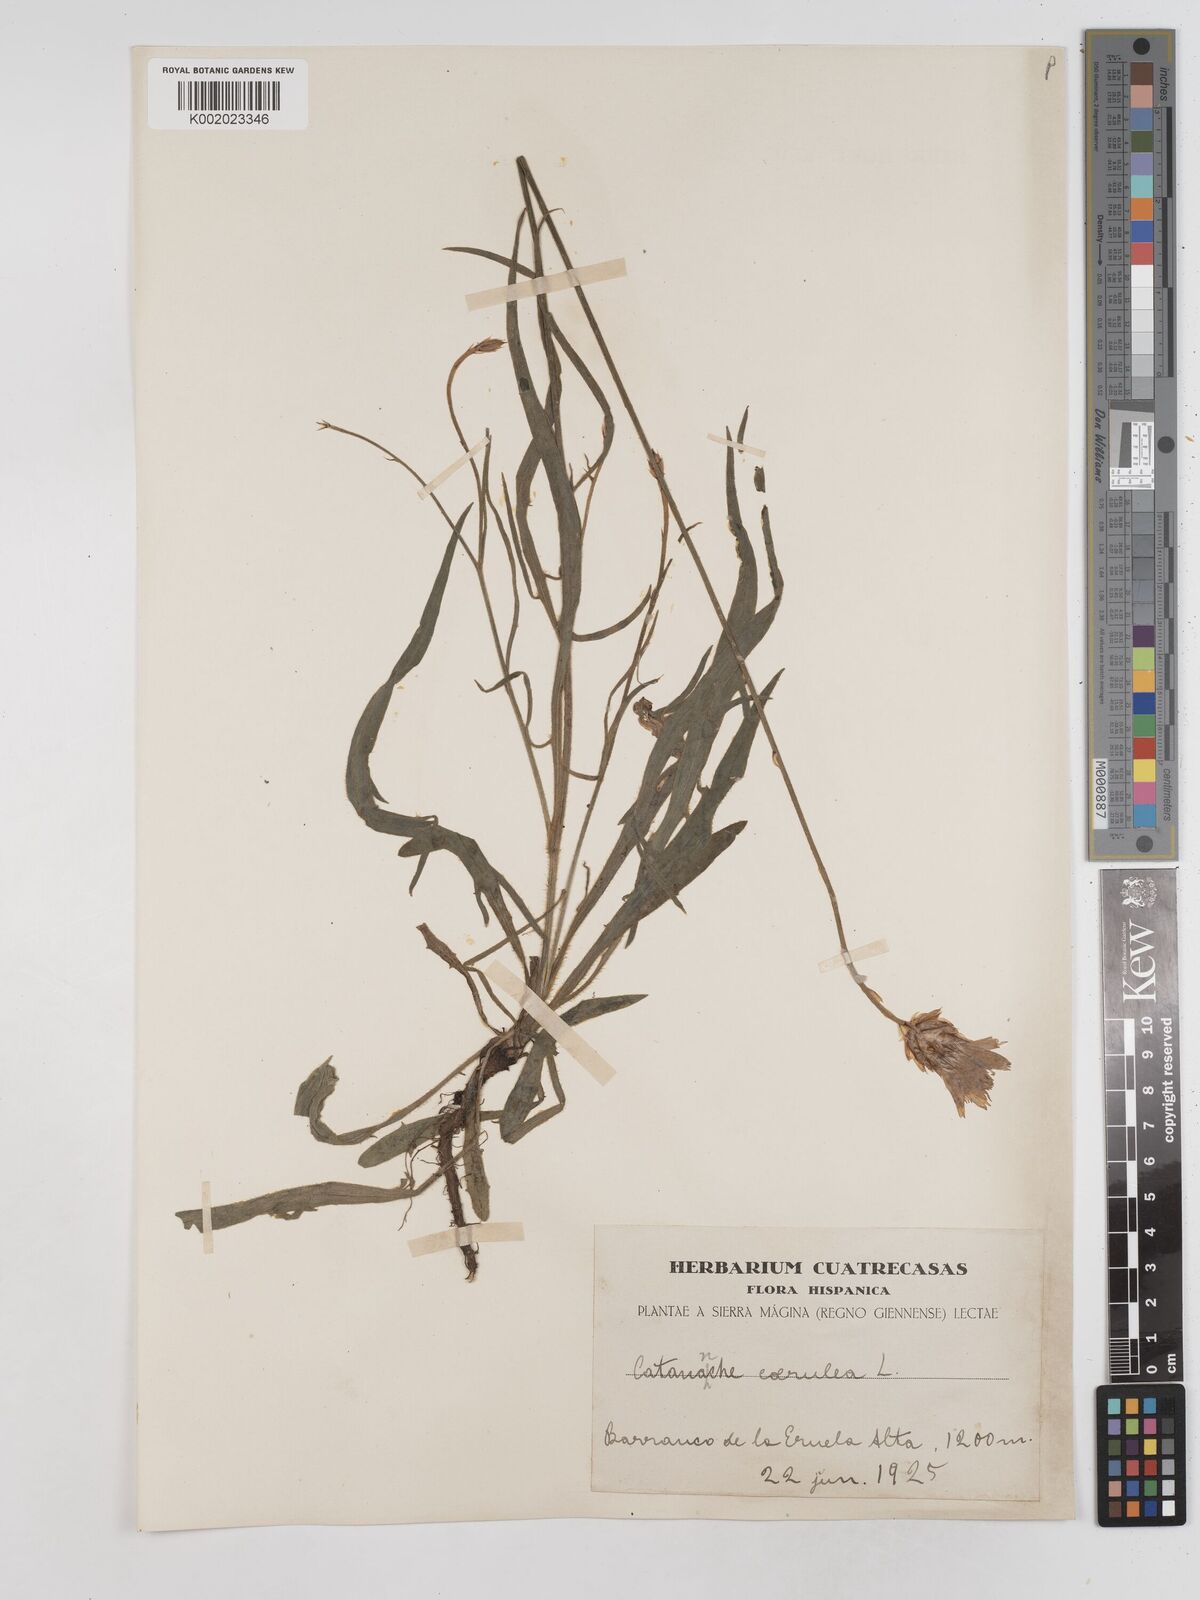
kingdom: Plantae
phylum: Tracheophyta
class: Magnoliopsida
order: Asterales
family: Asteraceae
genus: Catananche
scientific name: Catananche caerulea
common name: Blue cupidone
